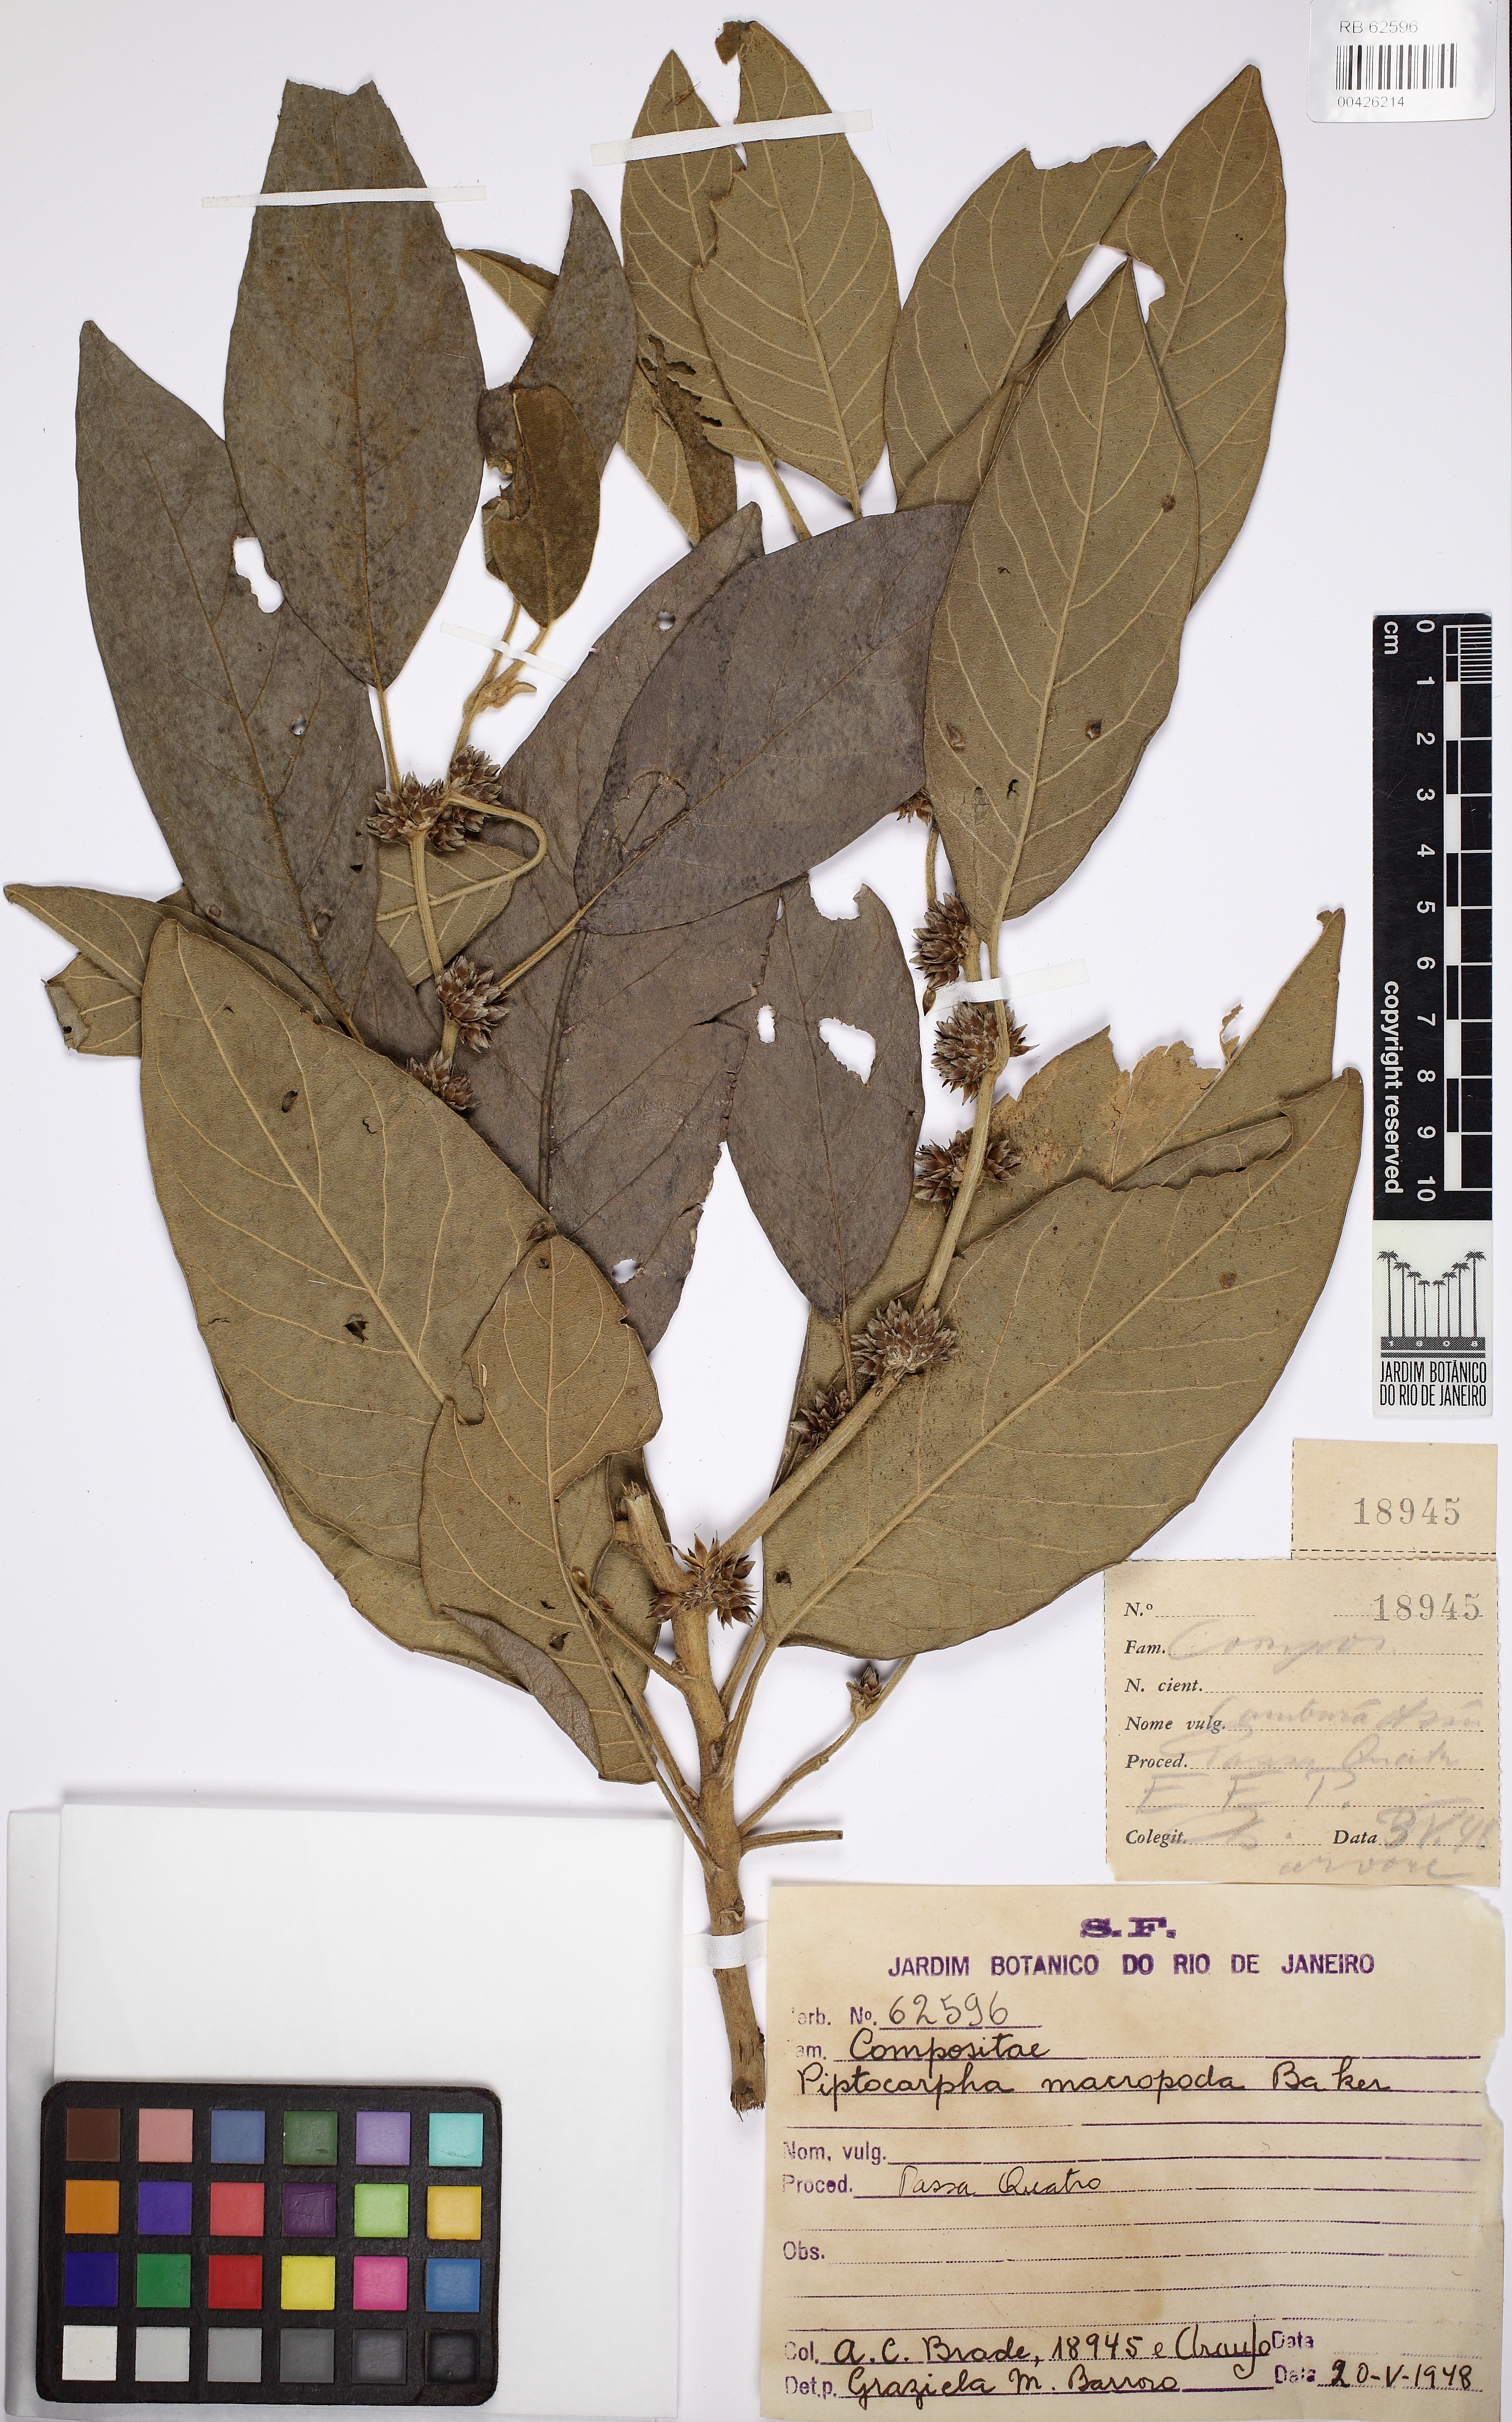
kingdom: Plantae
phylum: Tracheophyta
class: Magnoliopsida
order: Asterales
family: Asteraceae
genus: Piptocarpha
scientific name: Piptocarpha macropoda
